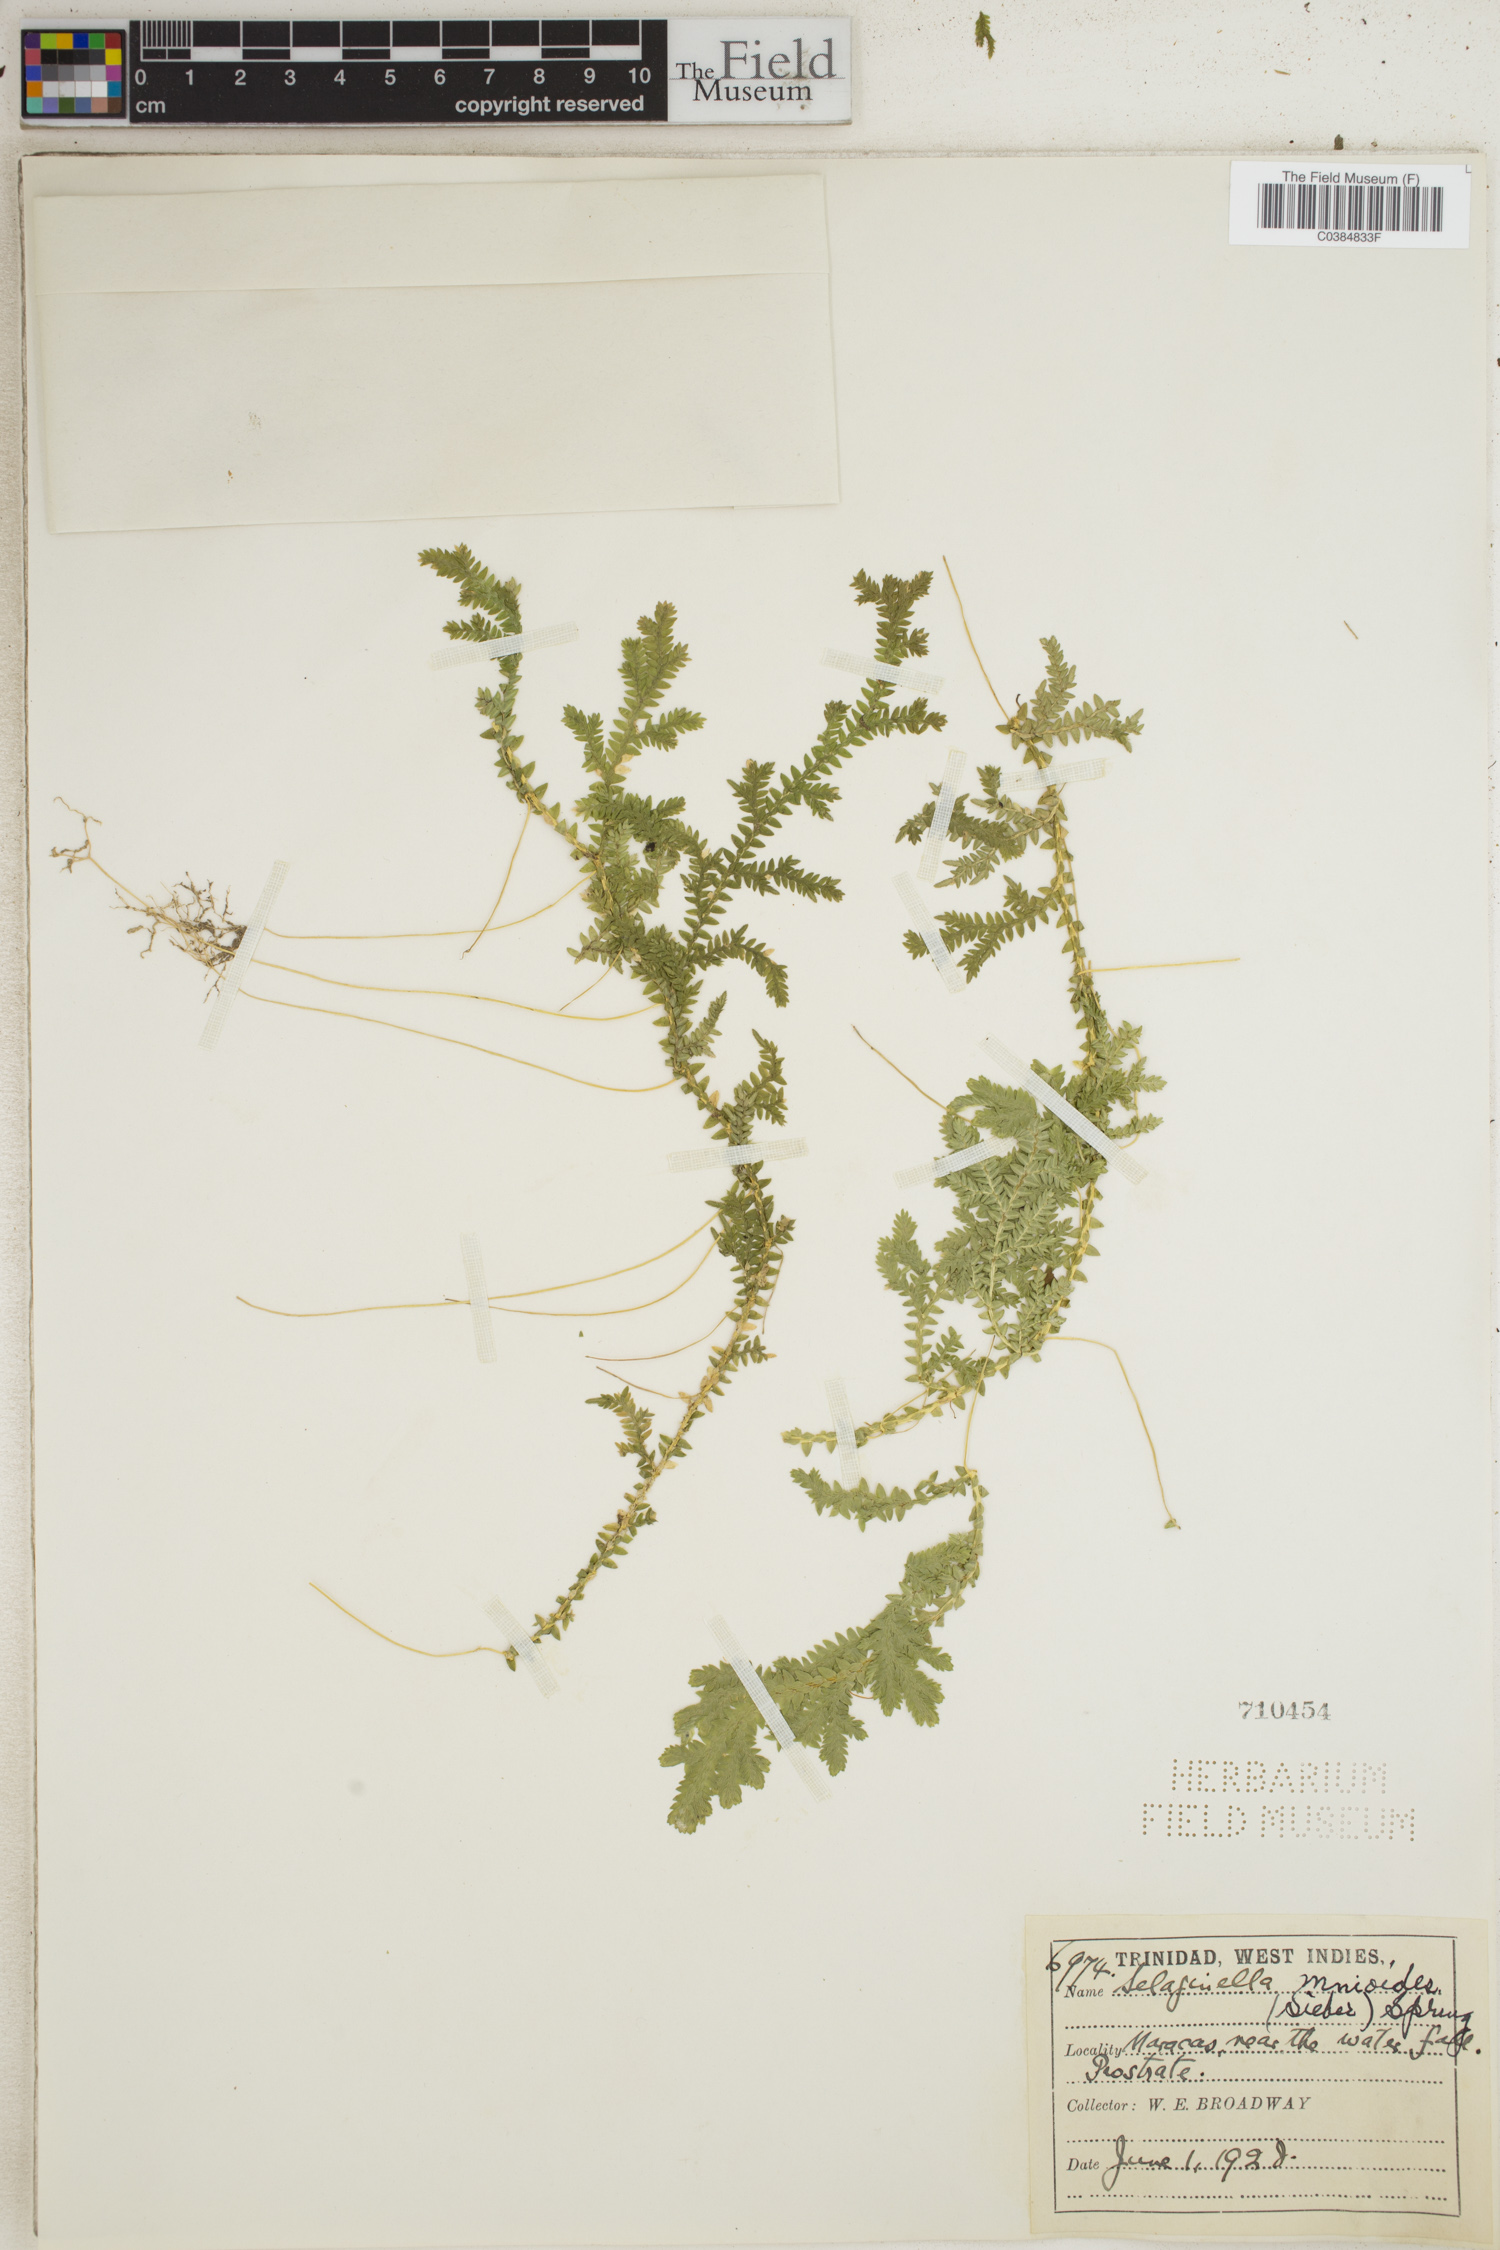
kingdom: Plantae
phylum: Tracheophyta
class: Lycopodiopsida
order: Selaginellales
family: Selaginellaceae
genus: Selaginella
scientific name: Selaginella diffusa
